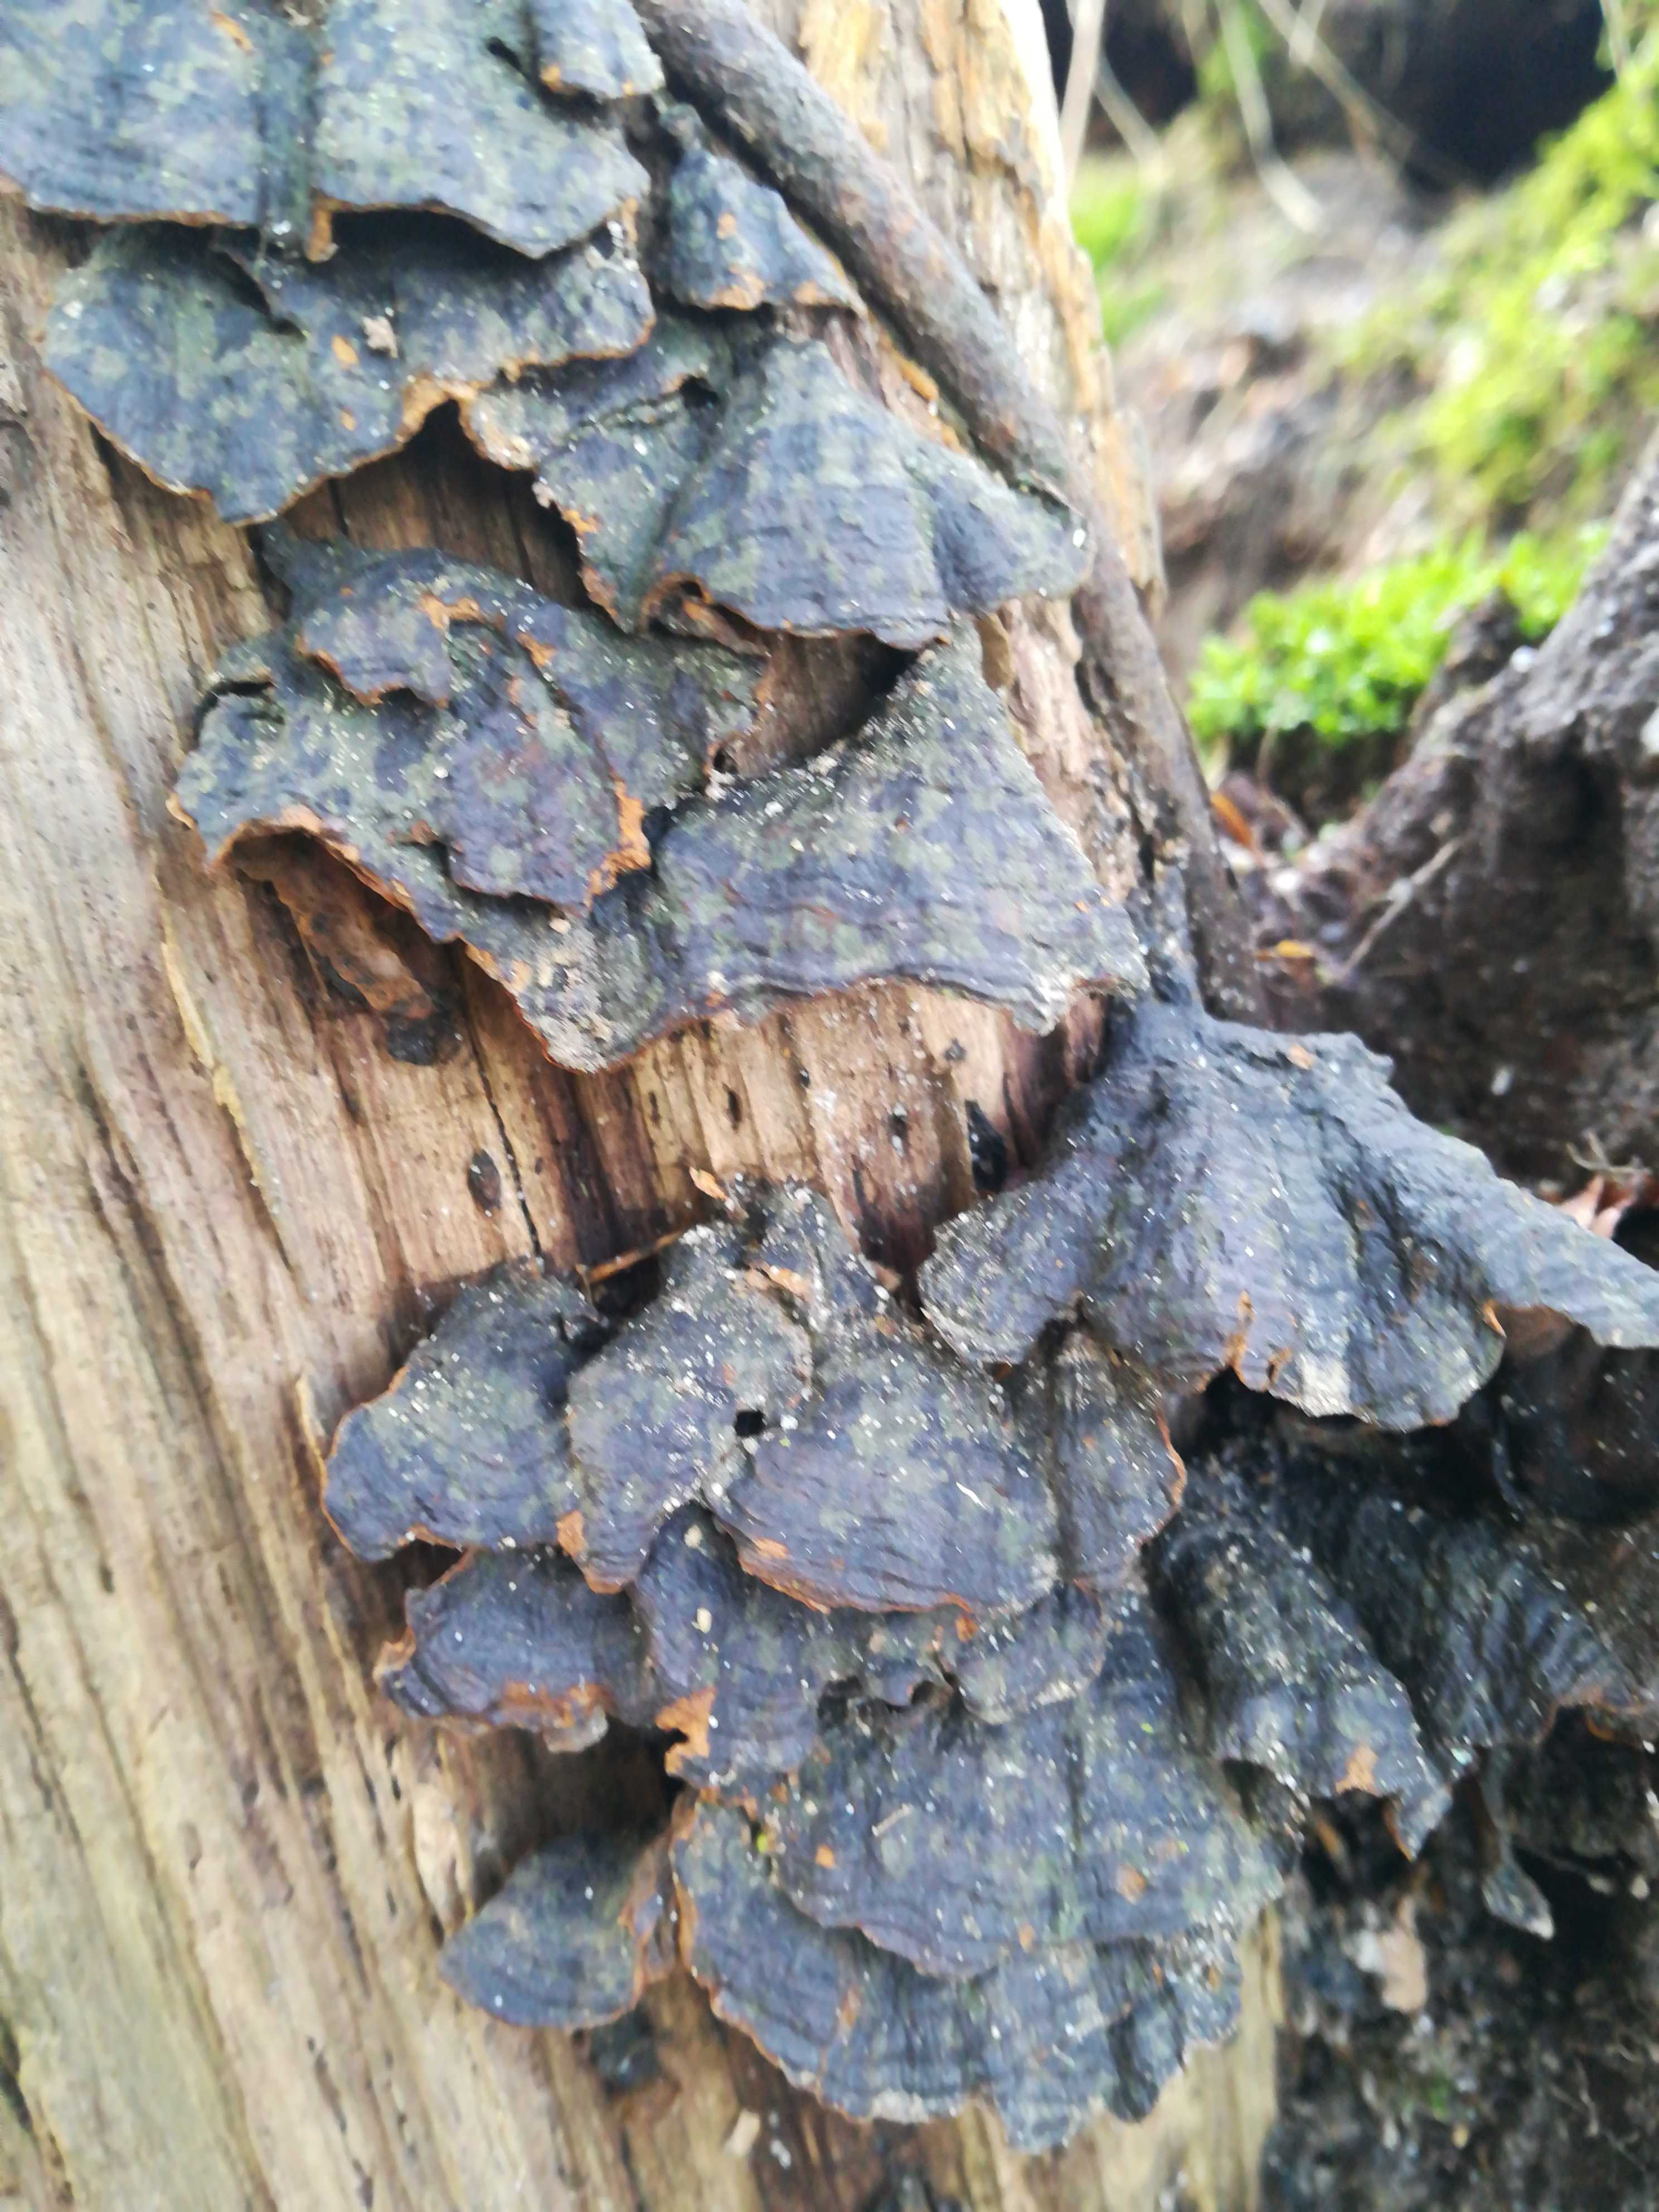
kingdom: Fungi
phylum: Basidiomycota
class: Agaricomycetes
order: Hymenochaetales
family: Hymenochaetaceae
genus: Hymenochaete
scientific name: Hymenochaete rubiginosa
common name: stiv ruslædersvamp
